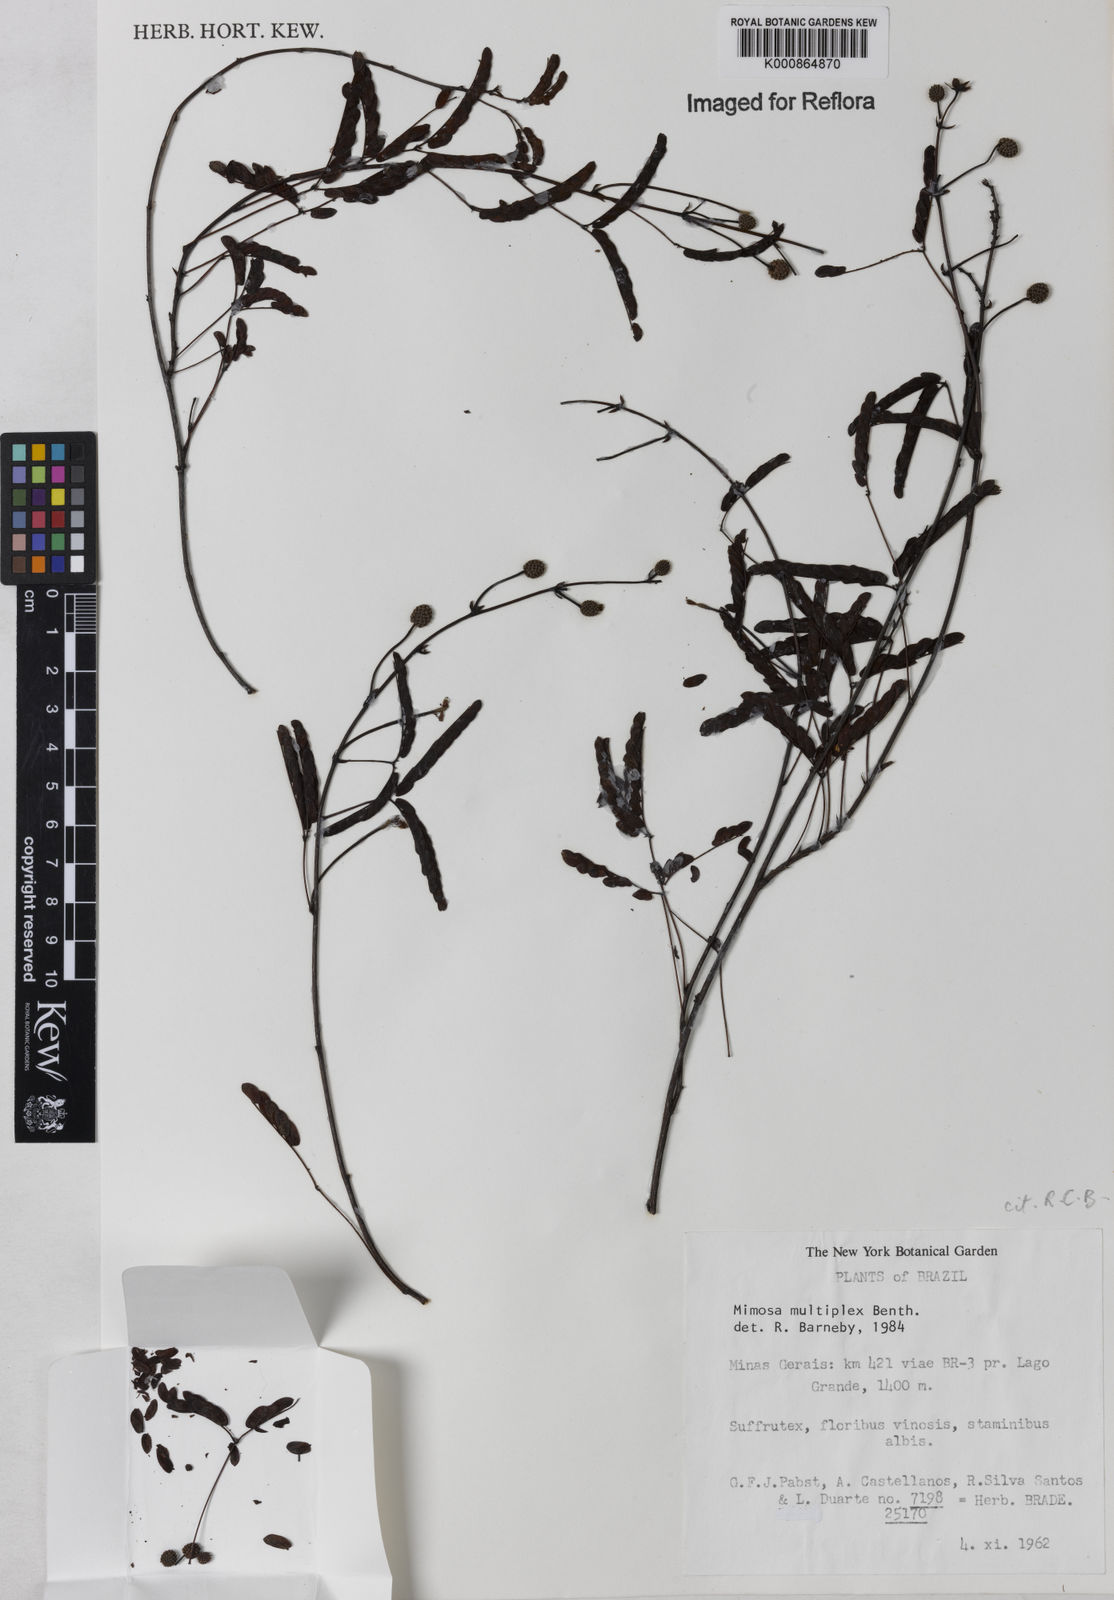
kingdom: Plantae
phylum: Tracheophyta
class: Magnoliopsida
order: Fabales
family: Fabaceae
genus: Mimosa
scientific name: Mimosa multiplex
